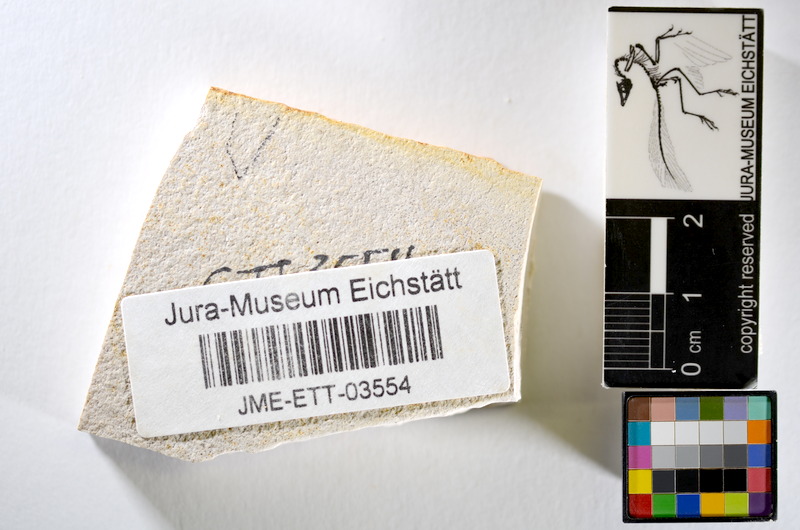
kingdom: Animalia
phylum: Chordata
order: Salmoniformes
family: Orthogonikleithridae
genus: Orthogonikleithrus
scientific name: Orthogonikleithrus hoelli
